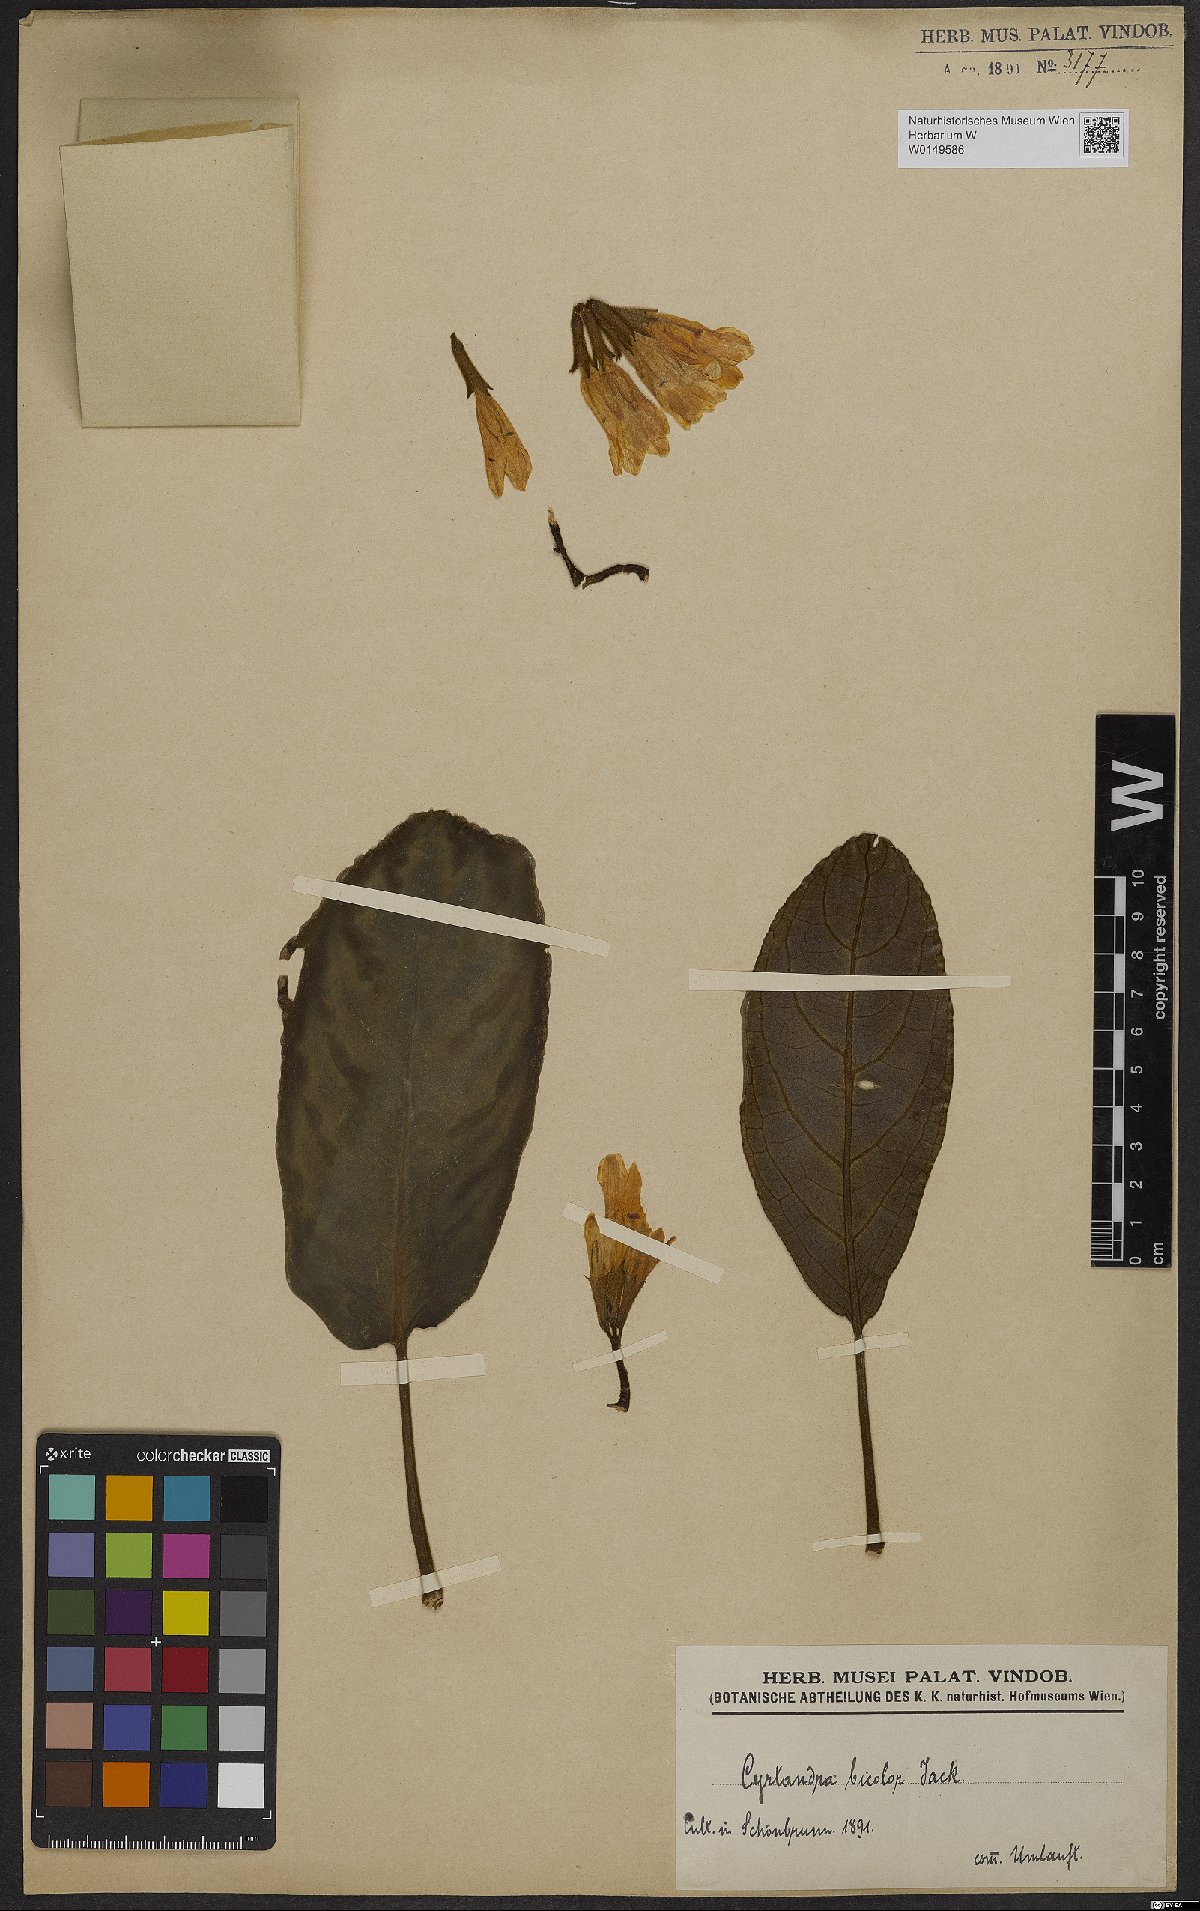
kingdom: Plantae
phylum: Tracheophyta
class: Magnoliopsida
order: Lamiales
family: Gesneriaceae
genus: Cyrtandra
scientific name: Cyrtandra bicolor
